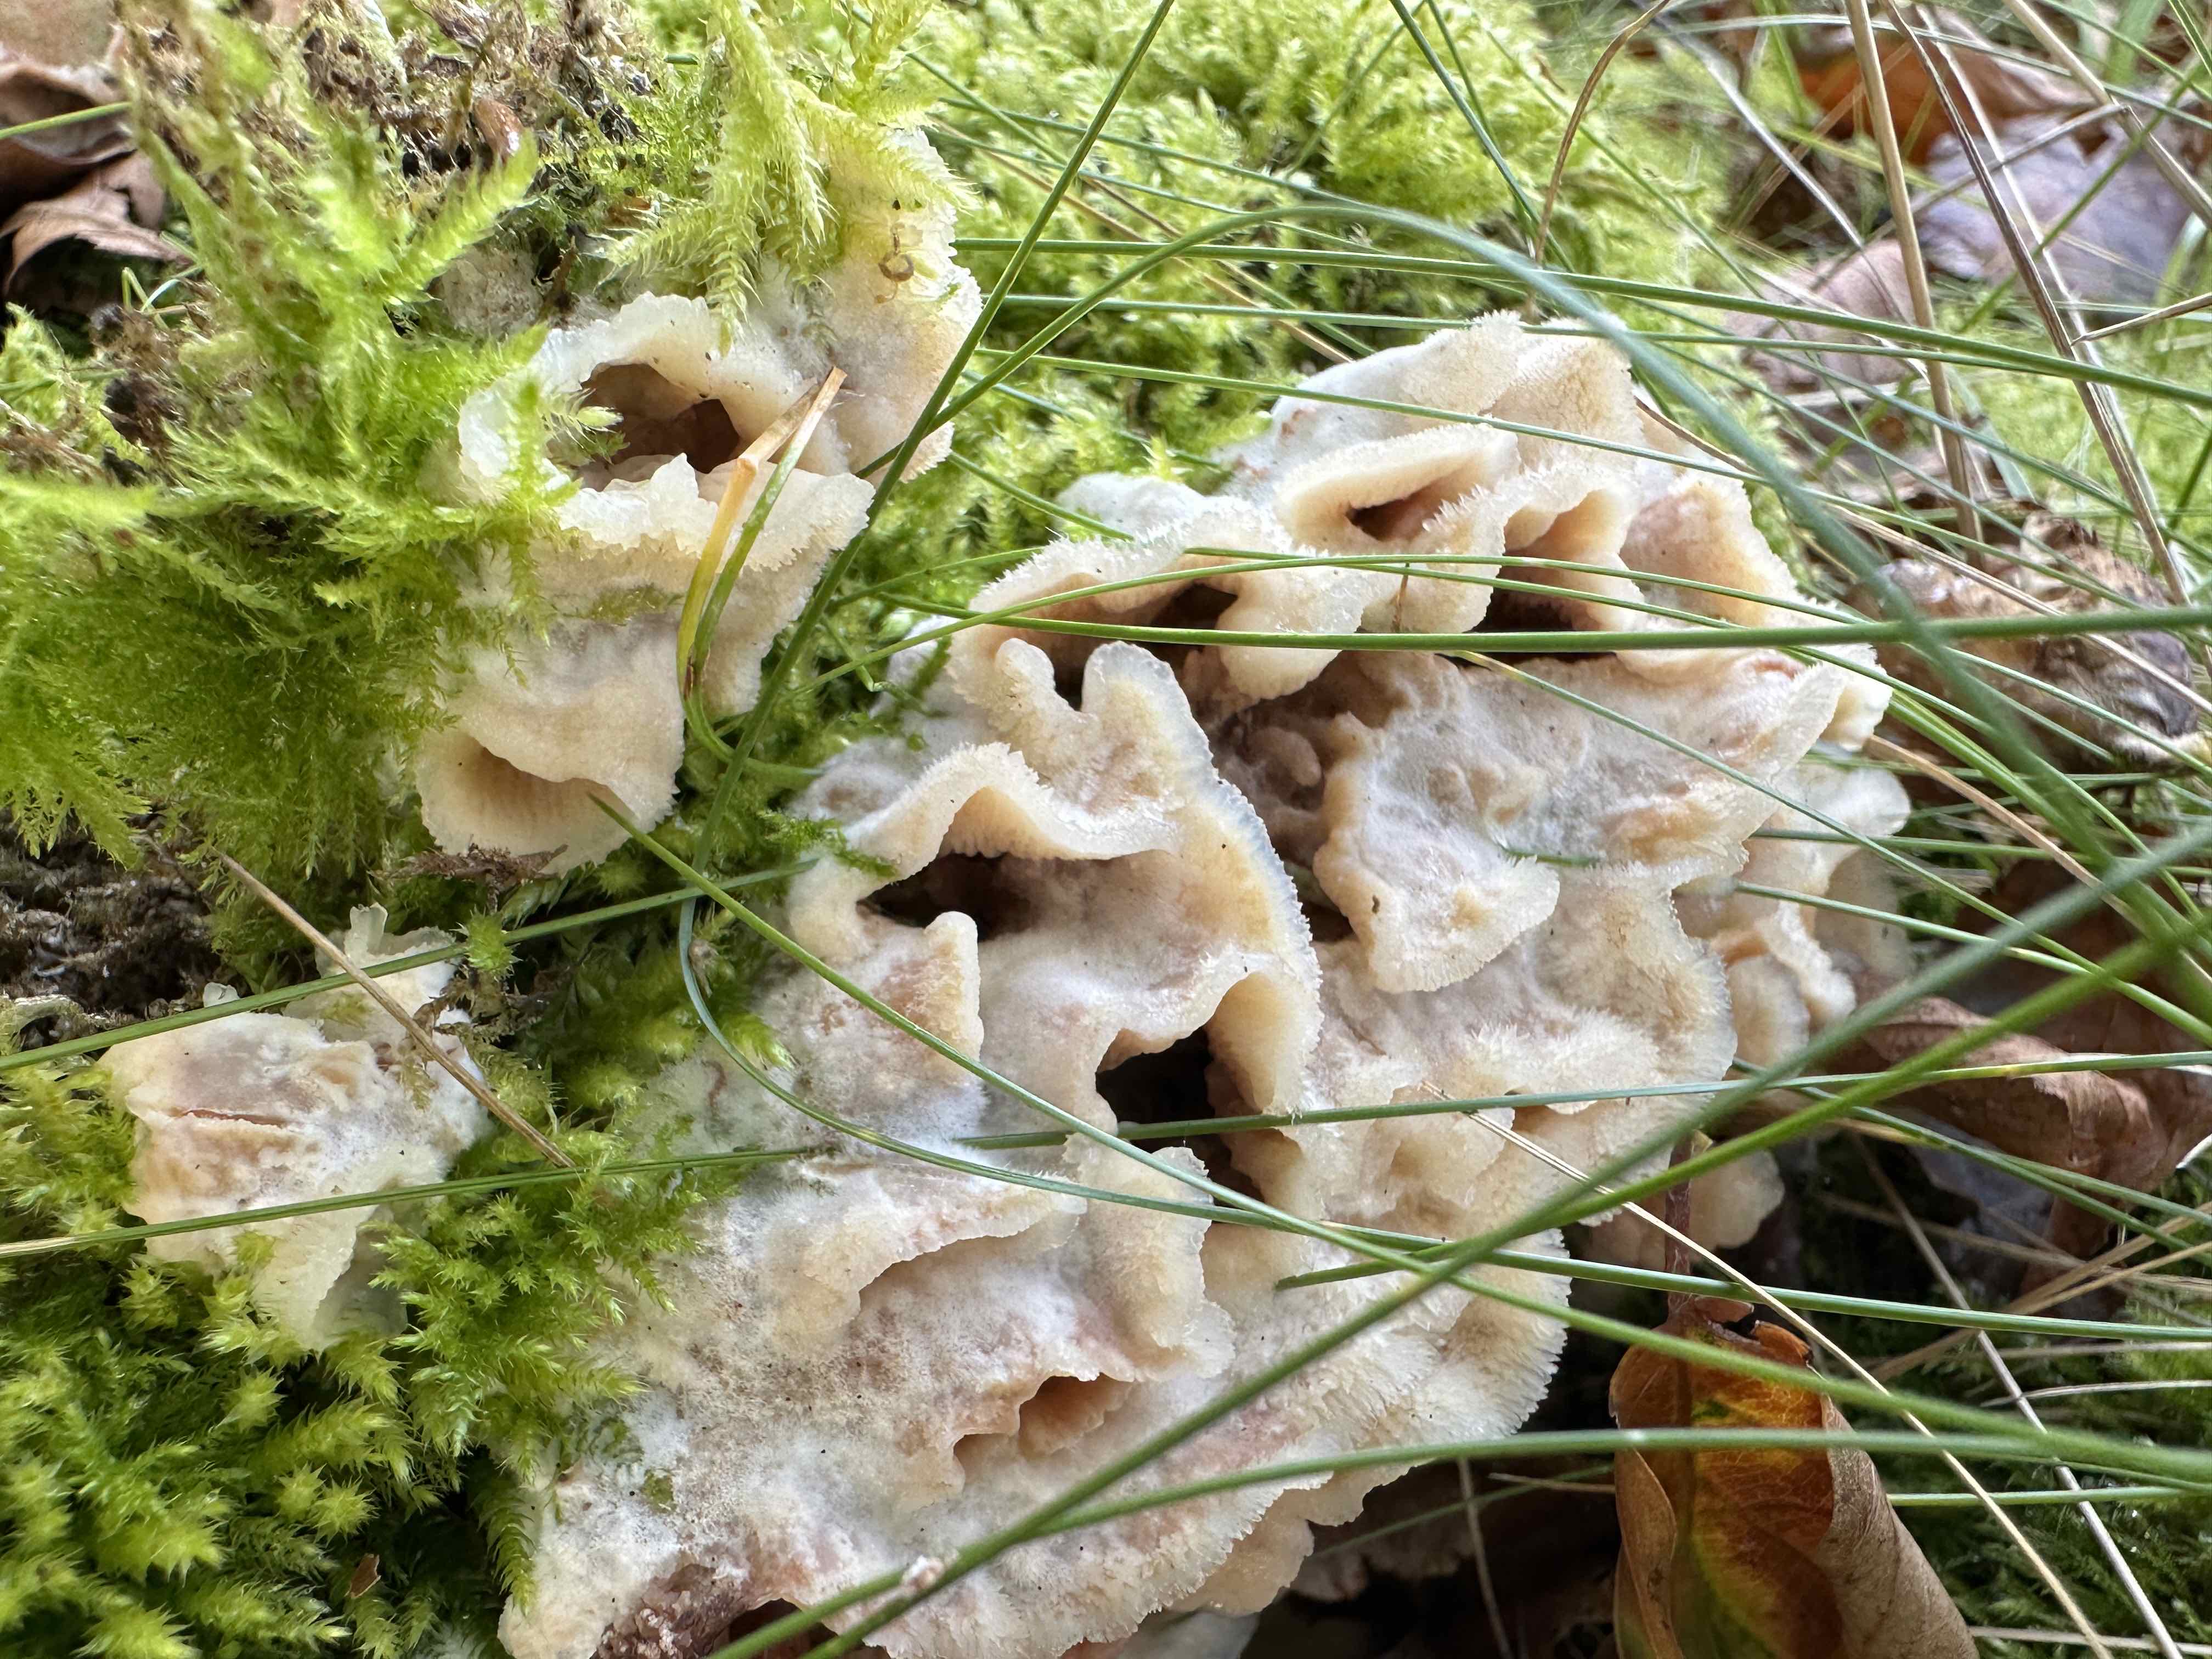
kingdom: Fungi
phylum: Basidiomycota
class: Agaricomycetes
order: Polyporales
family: Meruliaceae
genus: Phlebia
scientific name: Phlebia tremellosa
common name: bævrende åresvamp
